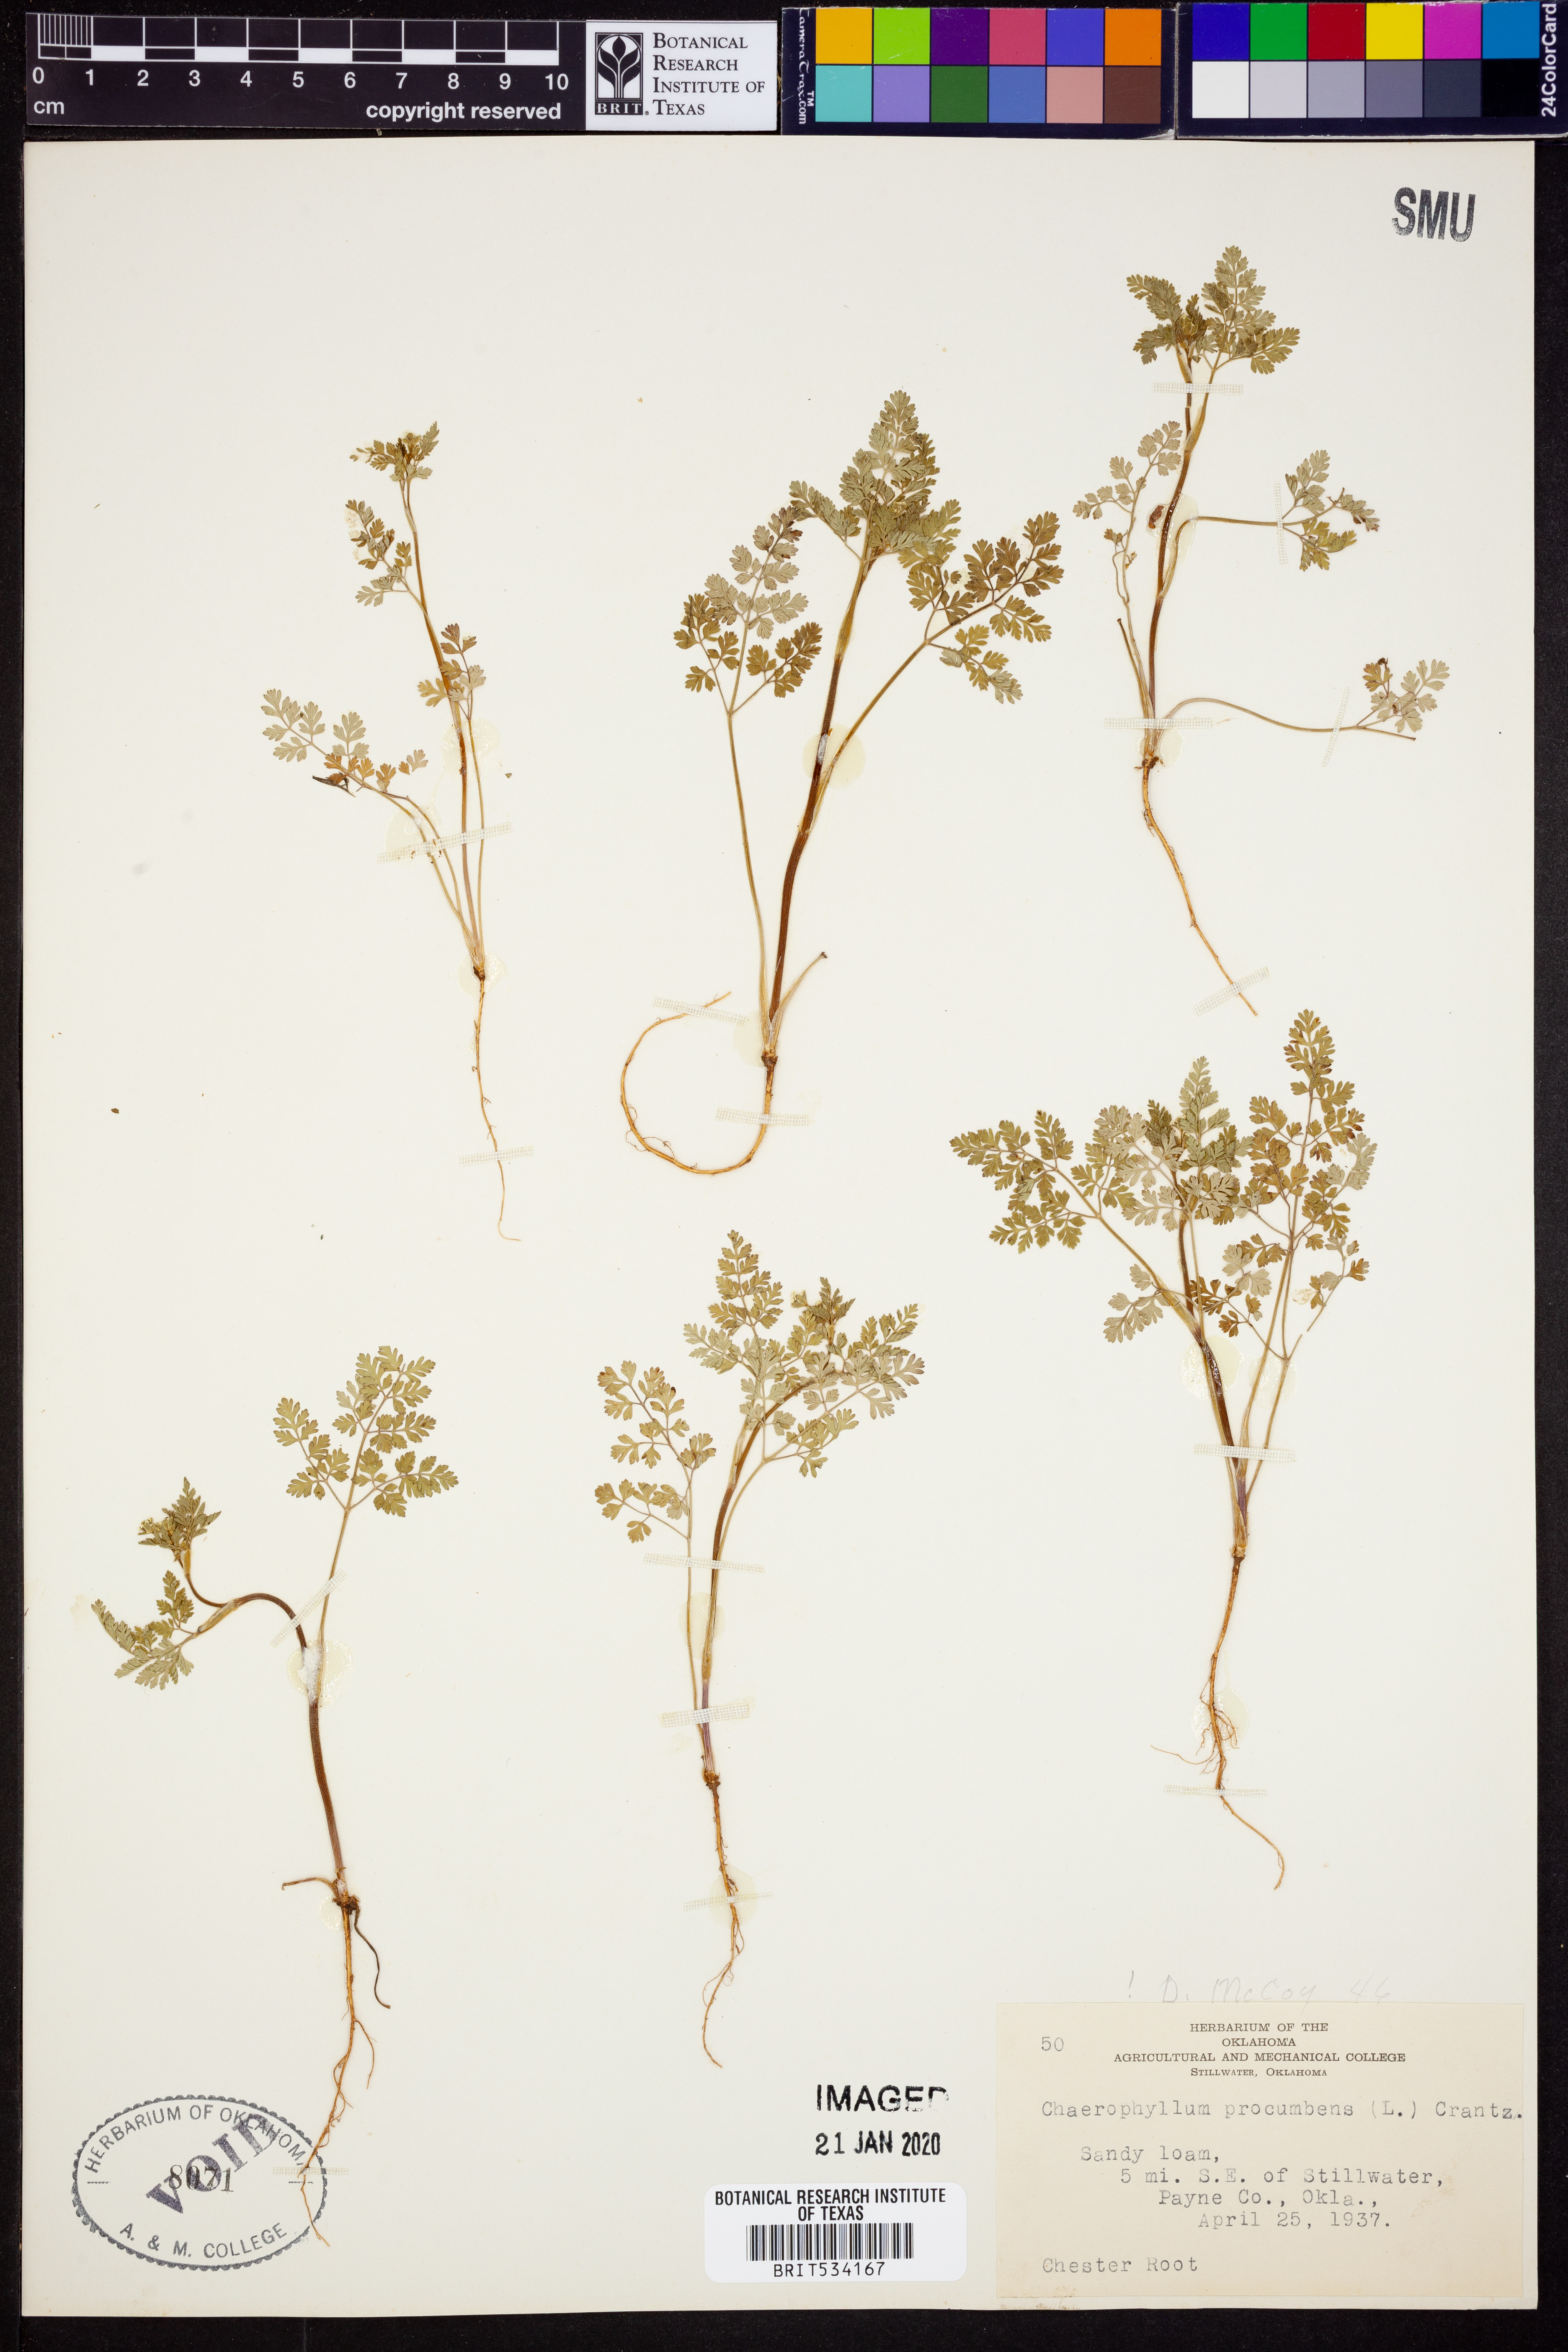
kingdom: Plantae
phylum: Tracheophyta
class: Magnoliopsida
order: Apiales
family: Apiaceae
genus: Chaerophyllum
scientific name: Chaerophyllum procumbens
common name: Spreading chervil
